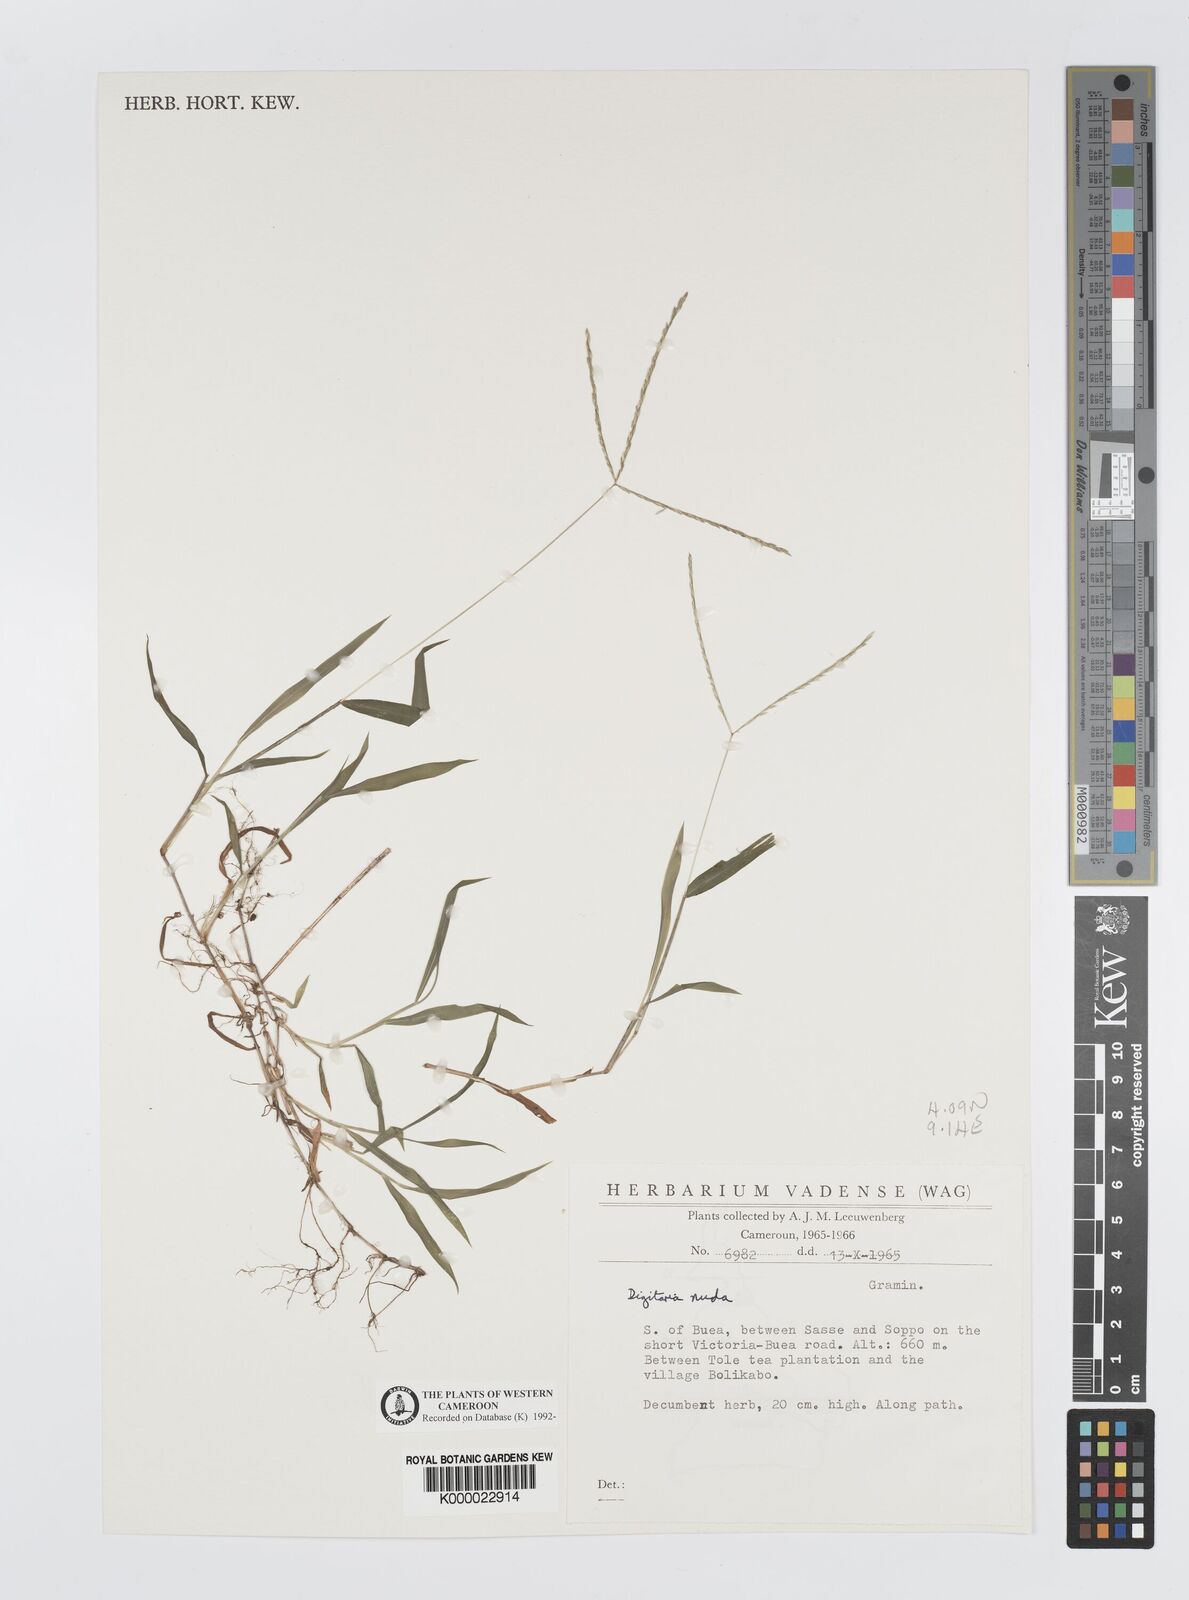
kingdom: Plantae
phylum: Tracheophyta
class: Liliopsida
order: Poales
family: Poaceae
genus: Digitaria
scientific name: Digitaria nuda
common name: Naked crabgrass
